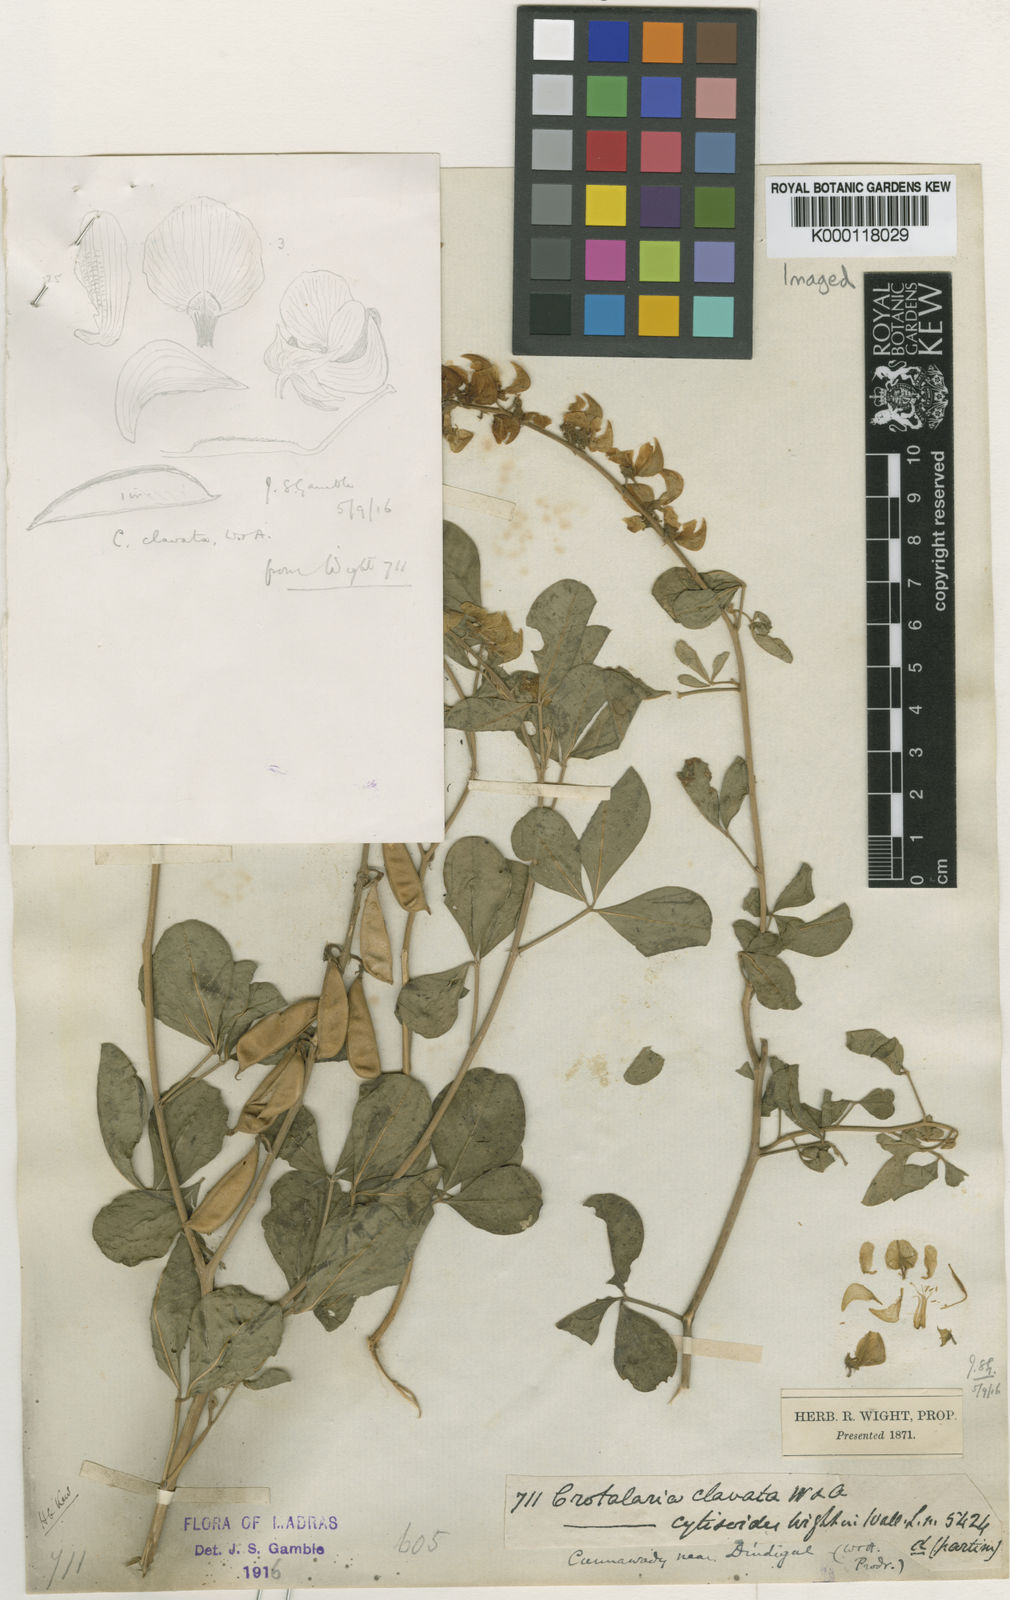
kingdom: Plantae
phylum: Tracheophyta
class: Magnoliopsida
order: Fabales
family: Fabaceae
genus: Crotalaria
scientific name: Crotalaria clavata
